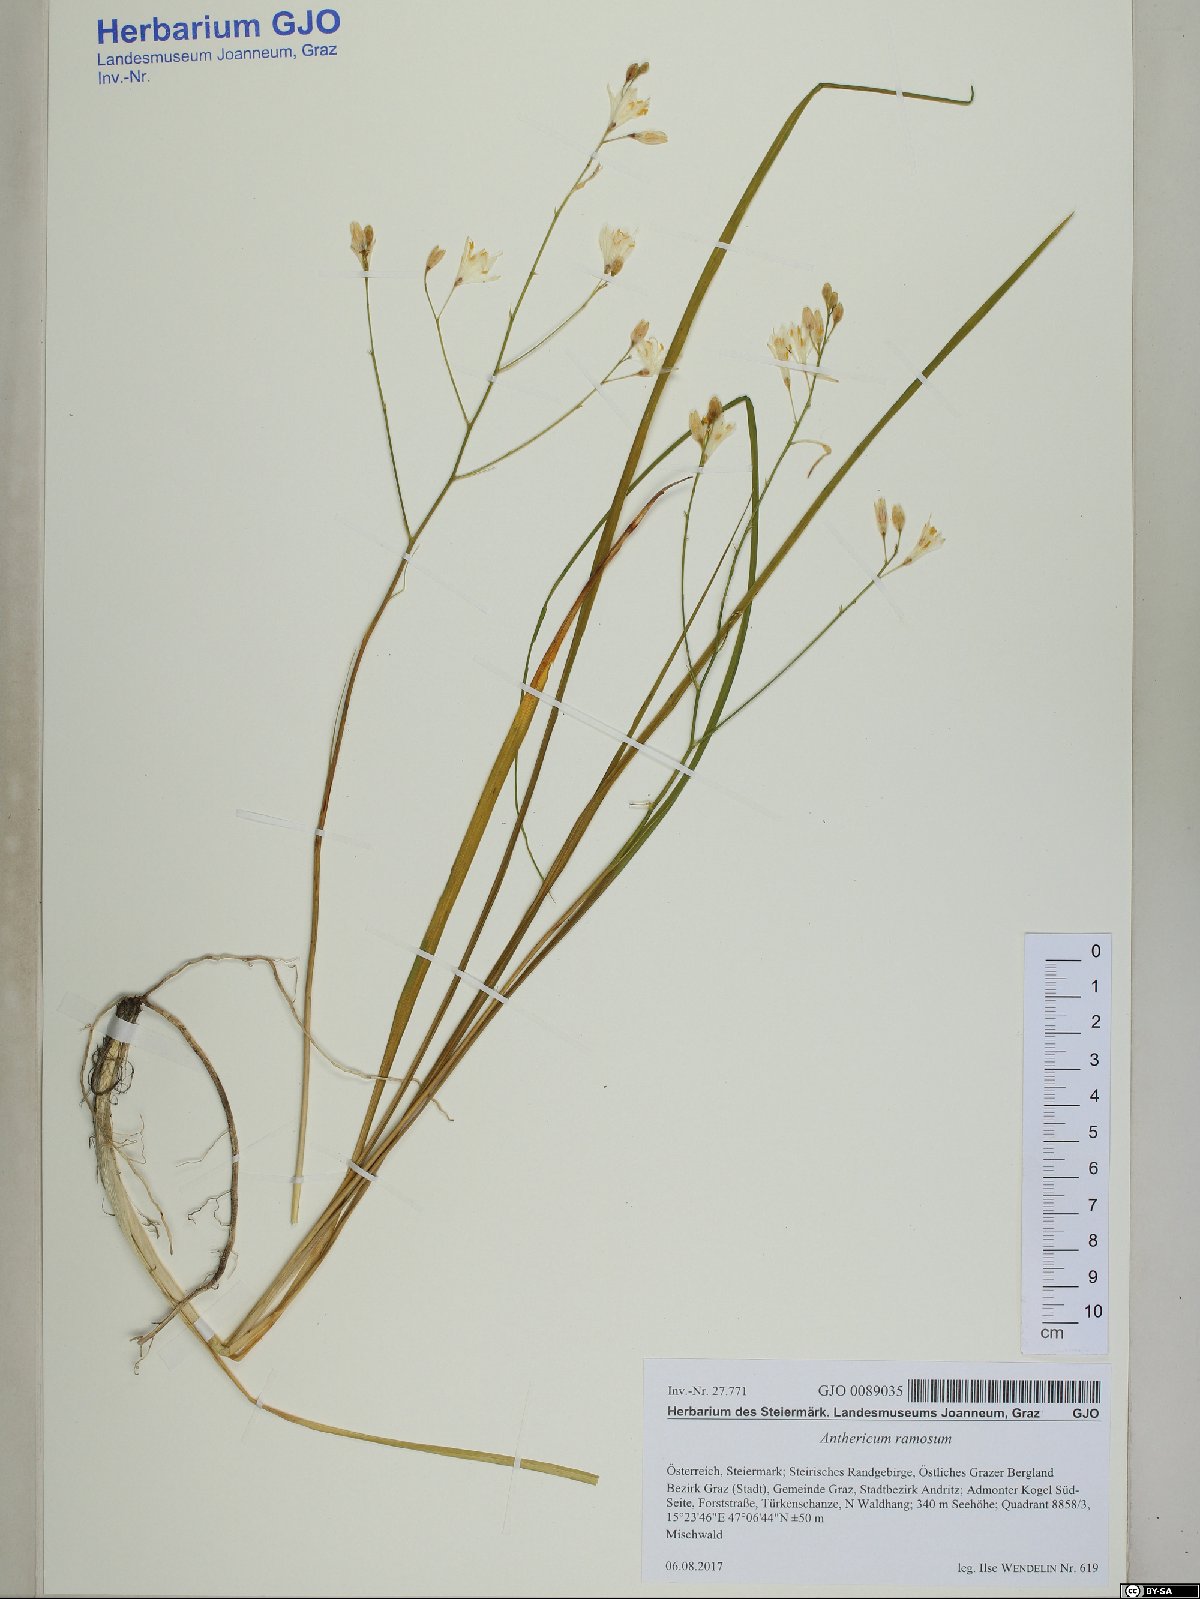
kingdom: Plantae
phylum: Tracheophyta
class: Liliopsida
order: Asparagales
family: Asparagaceae
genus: Anthericum
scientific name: Anthericum ramosum
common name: Branched st. bernard's-lily
